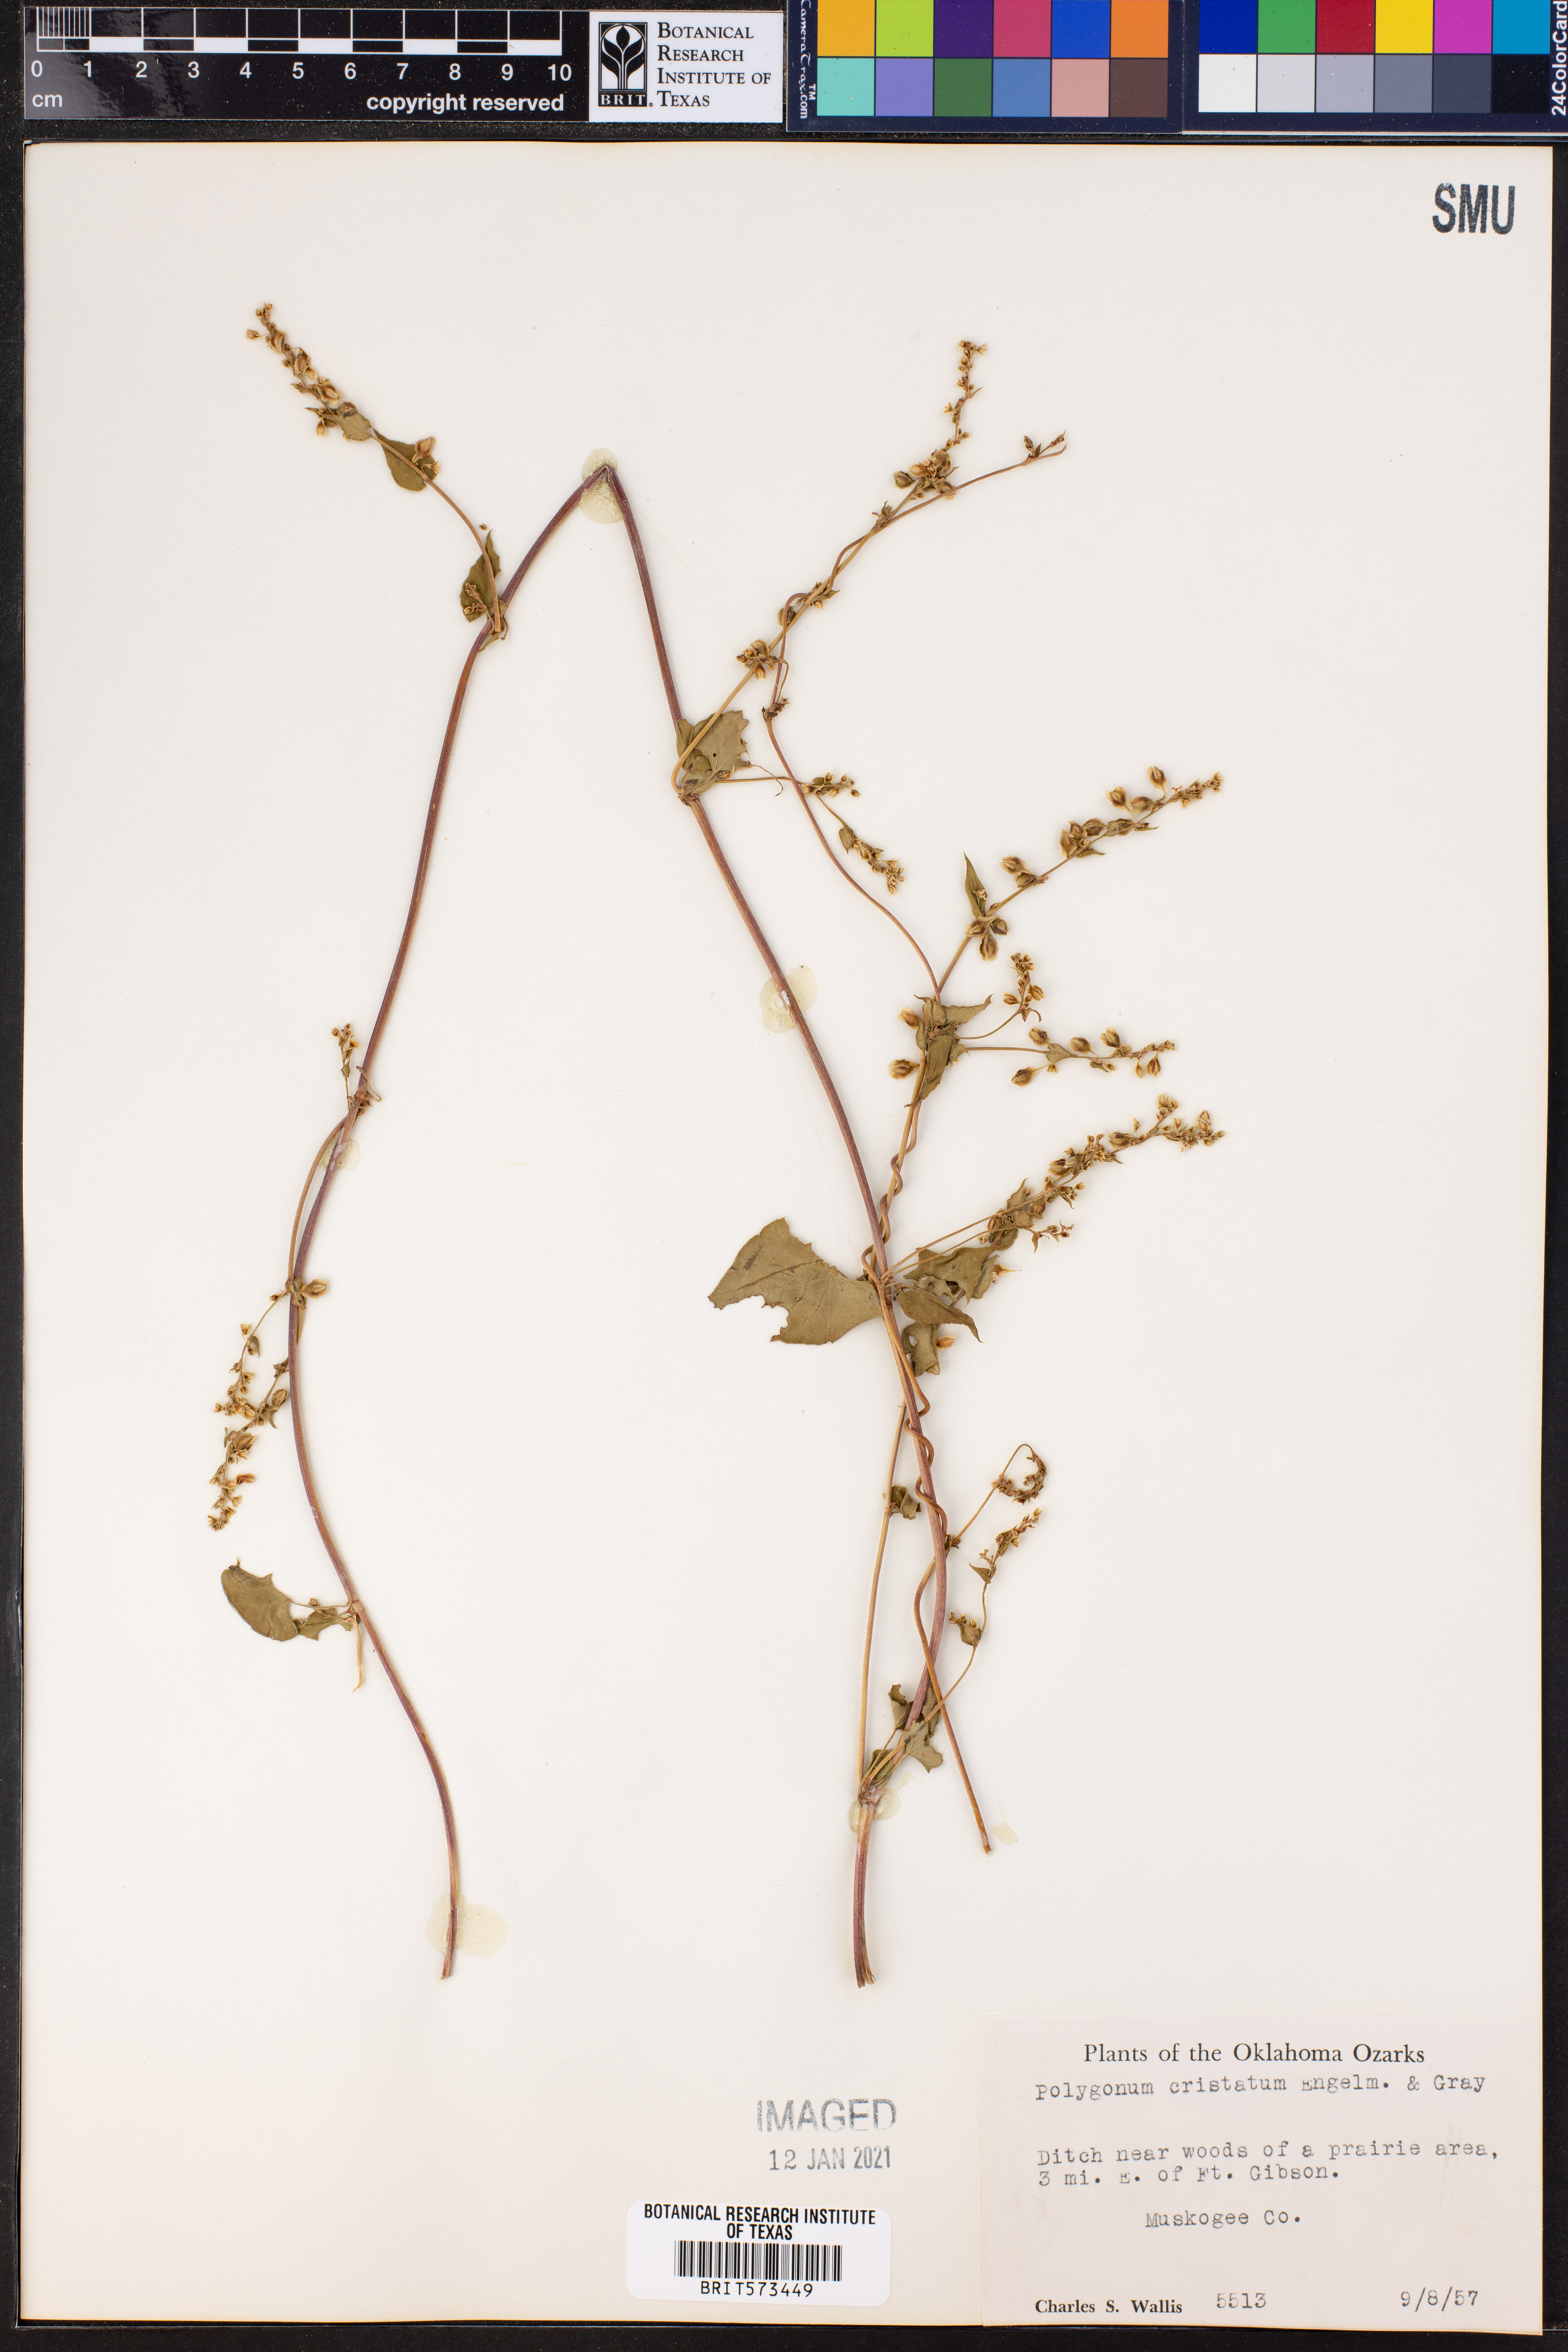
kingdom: Plantae
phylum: Tracheophyta
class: Magnoliopsida
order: Caryophyllales
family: Polygonaceae
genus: Fallopia
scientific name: Fallopia scandens
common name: Climbing false buckwheat
